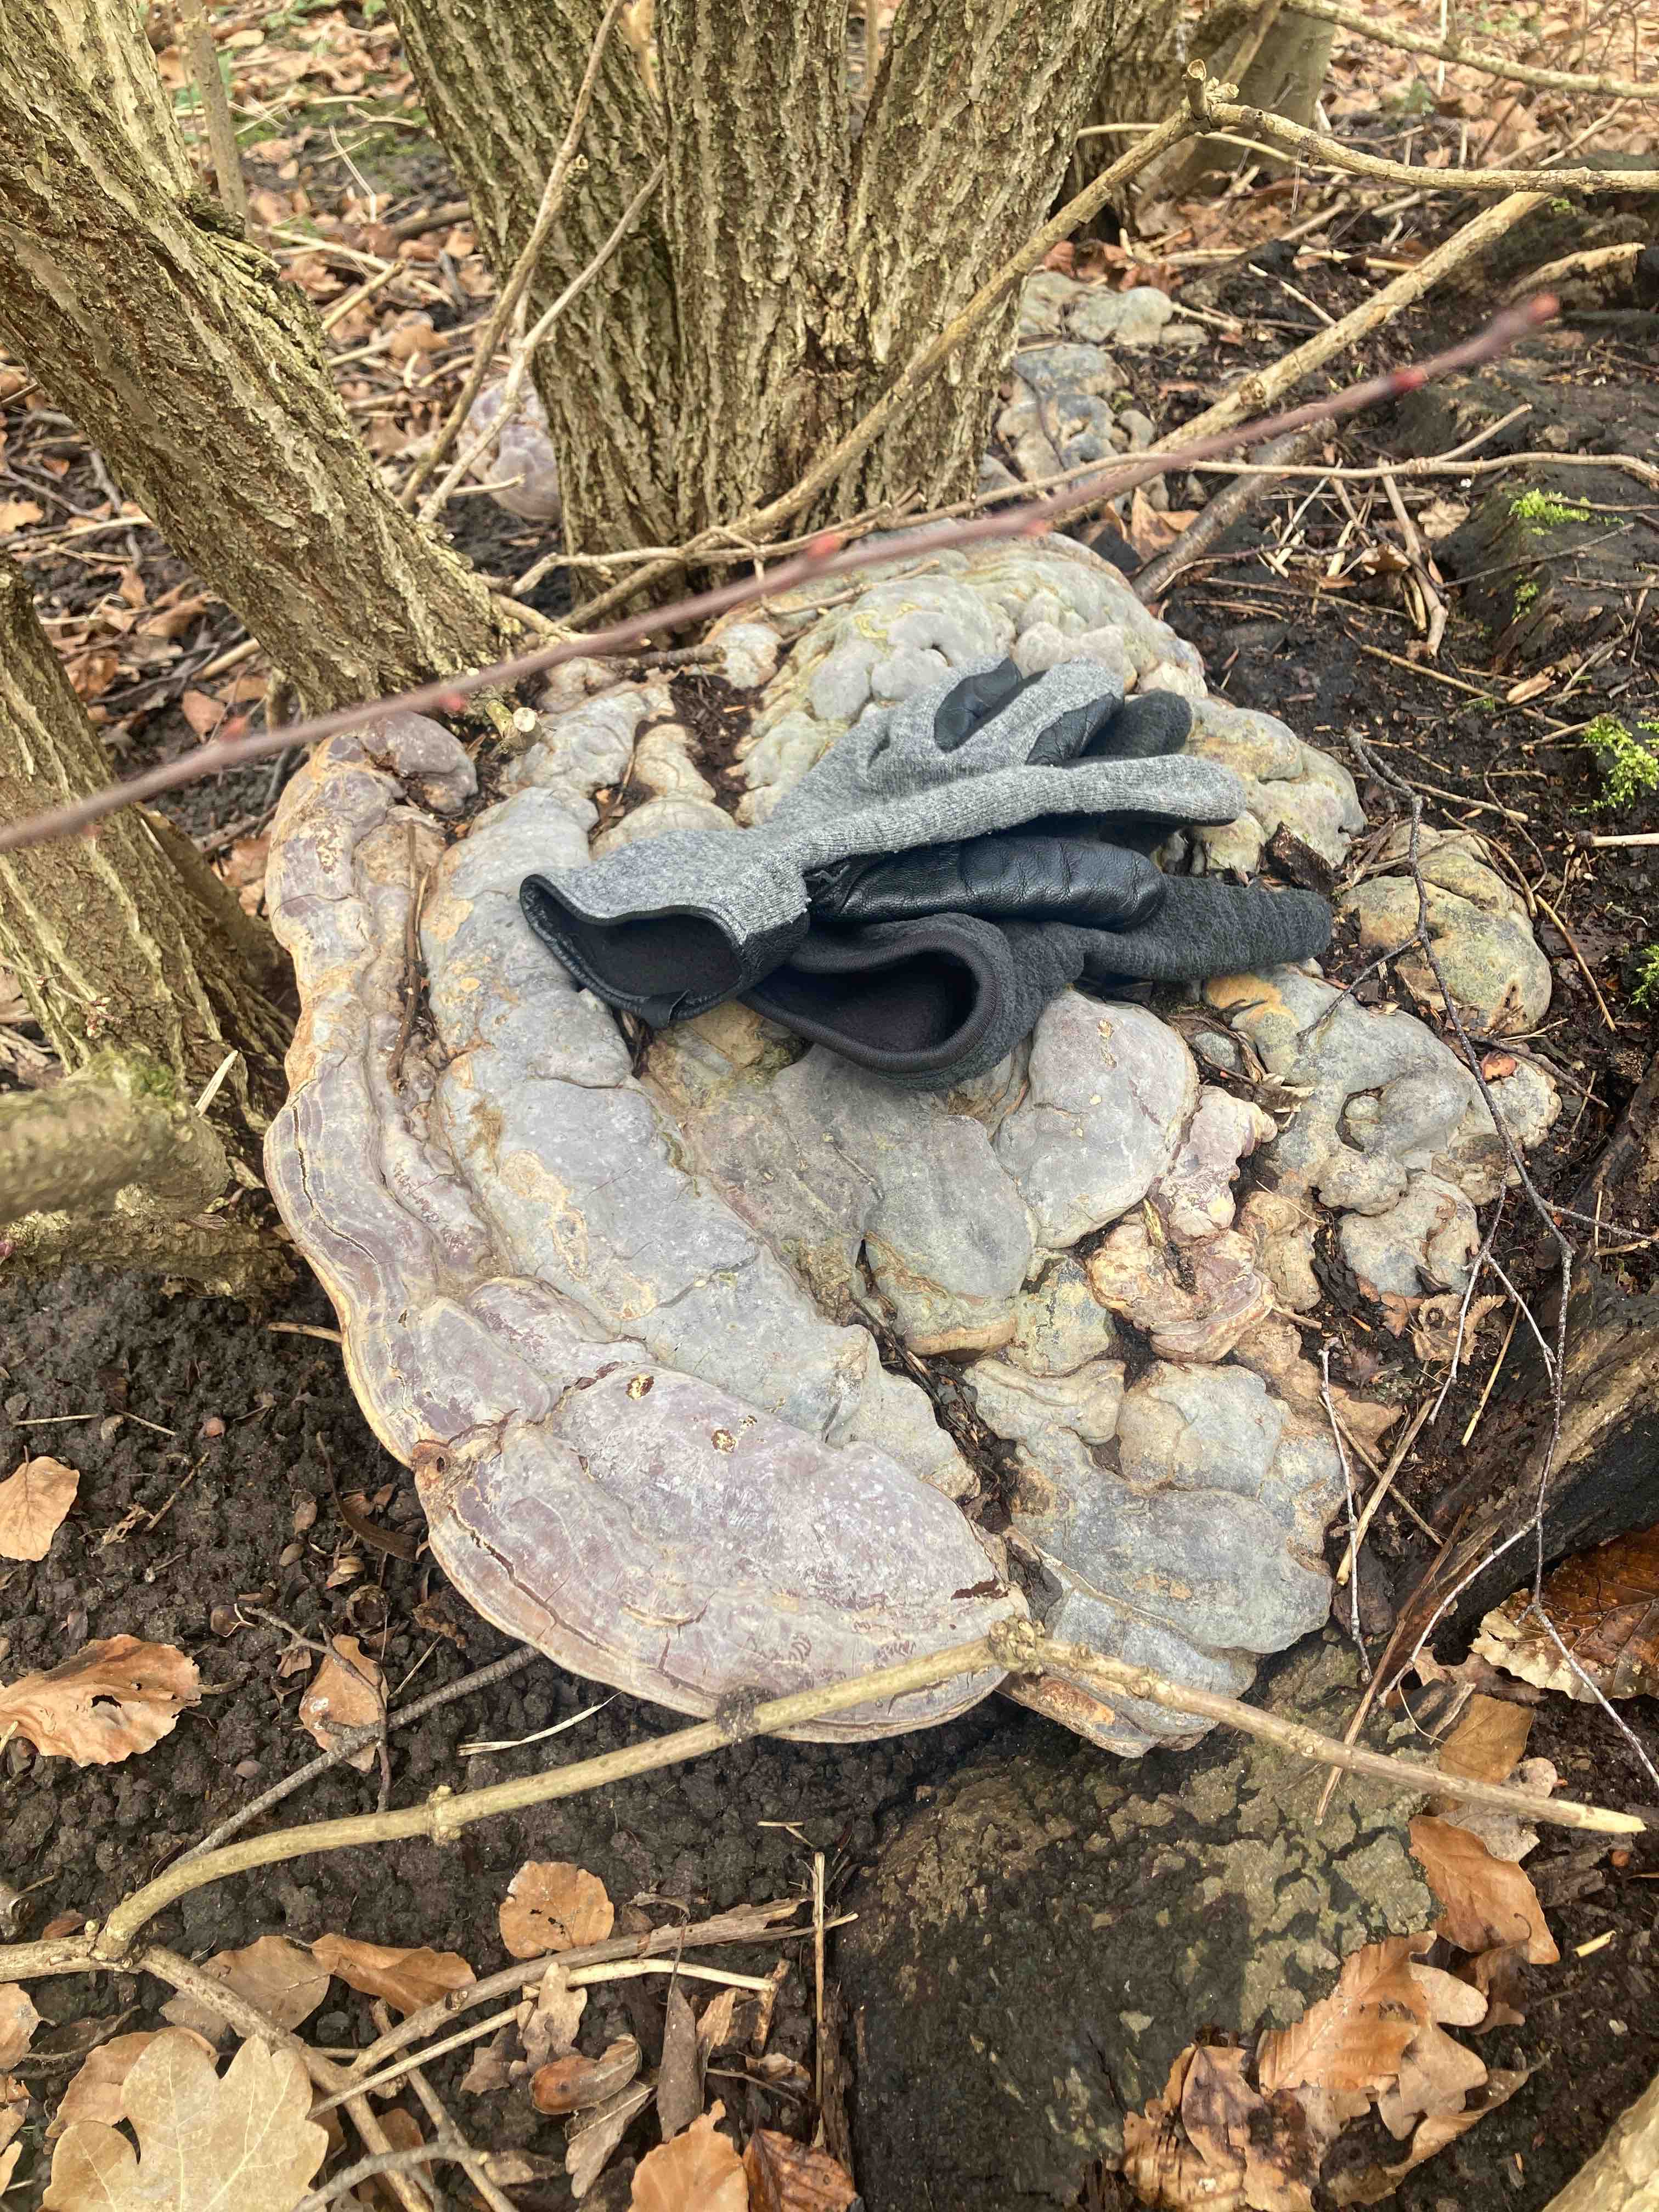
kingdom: Fungi
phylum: Basidiomycota
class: Agaricomycetes
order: Polyporales
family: Polyporaceae
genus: Ganoderma
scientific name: Ganoderma pfeifferi
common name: kobberrød lakporesvamp
